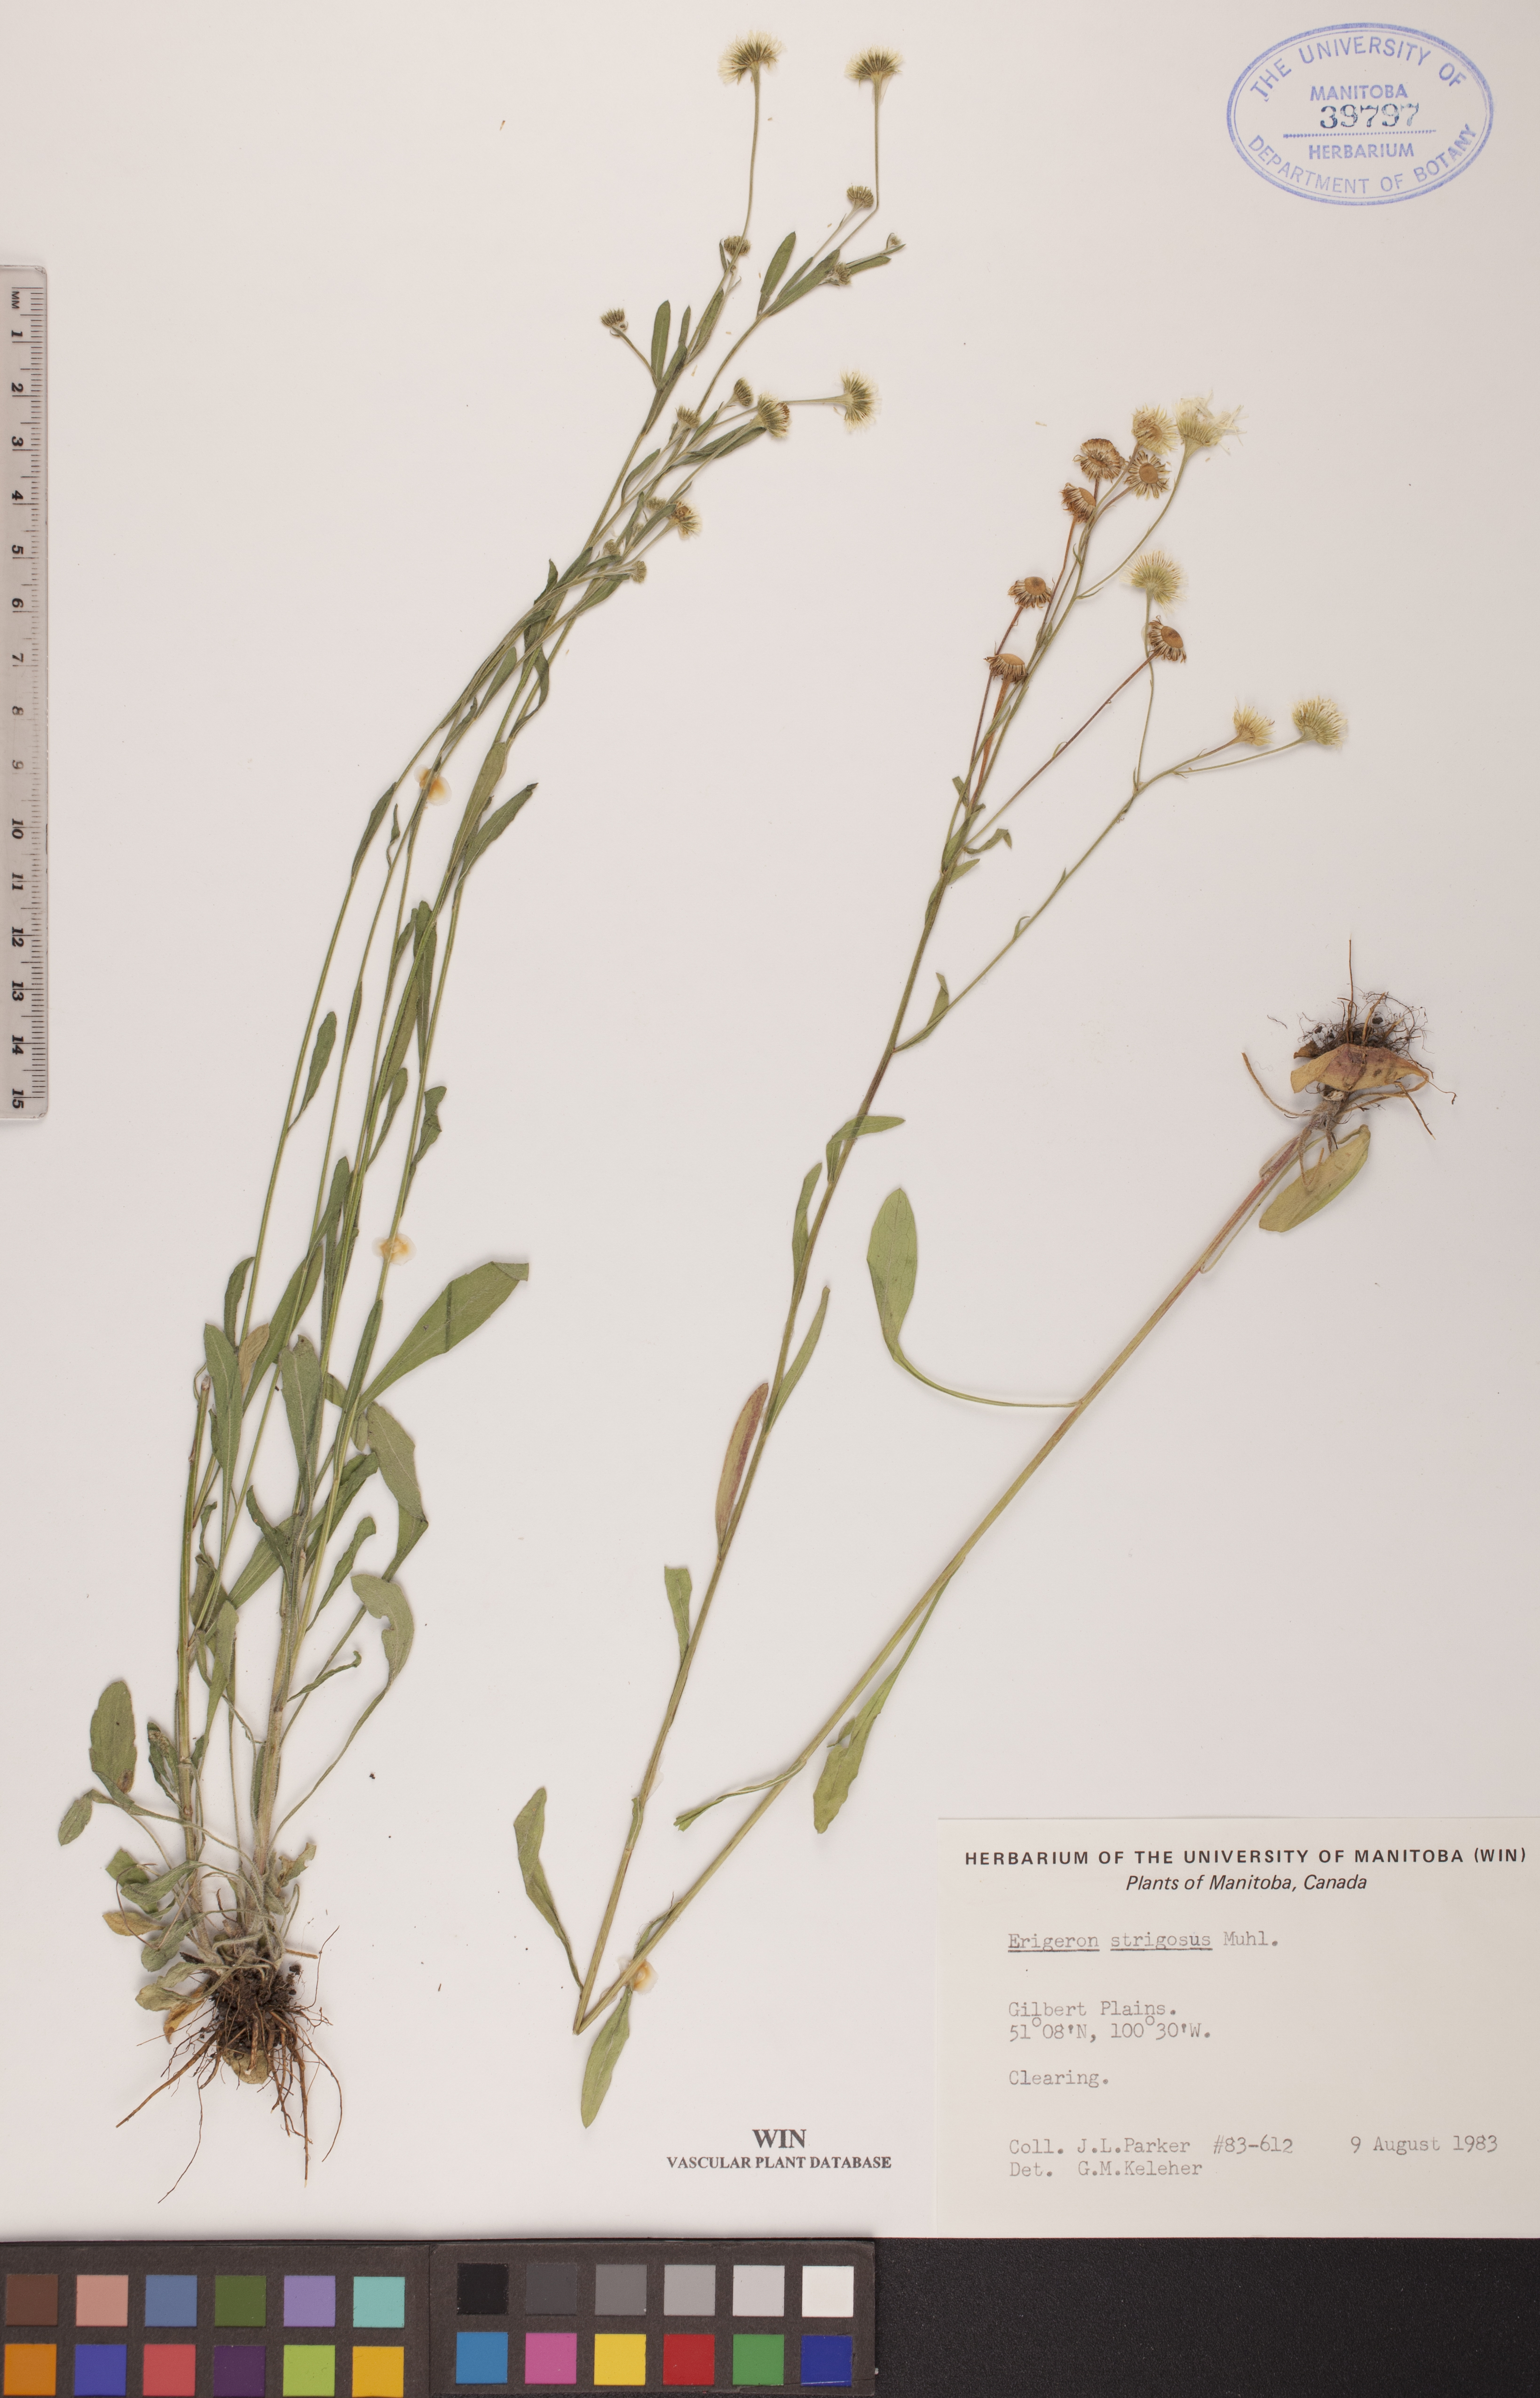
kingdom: Plantae
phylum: Tracheophyta
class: Magnoliopsida
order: Asterales
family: Asteraceae
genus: Erigeron
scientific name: Erigeron strigosus
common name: Common eastern fleabane
